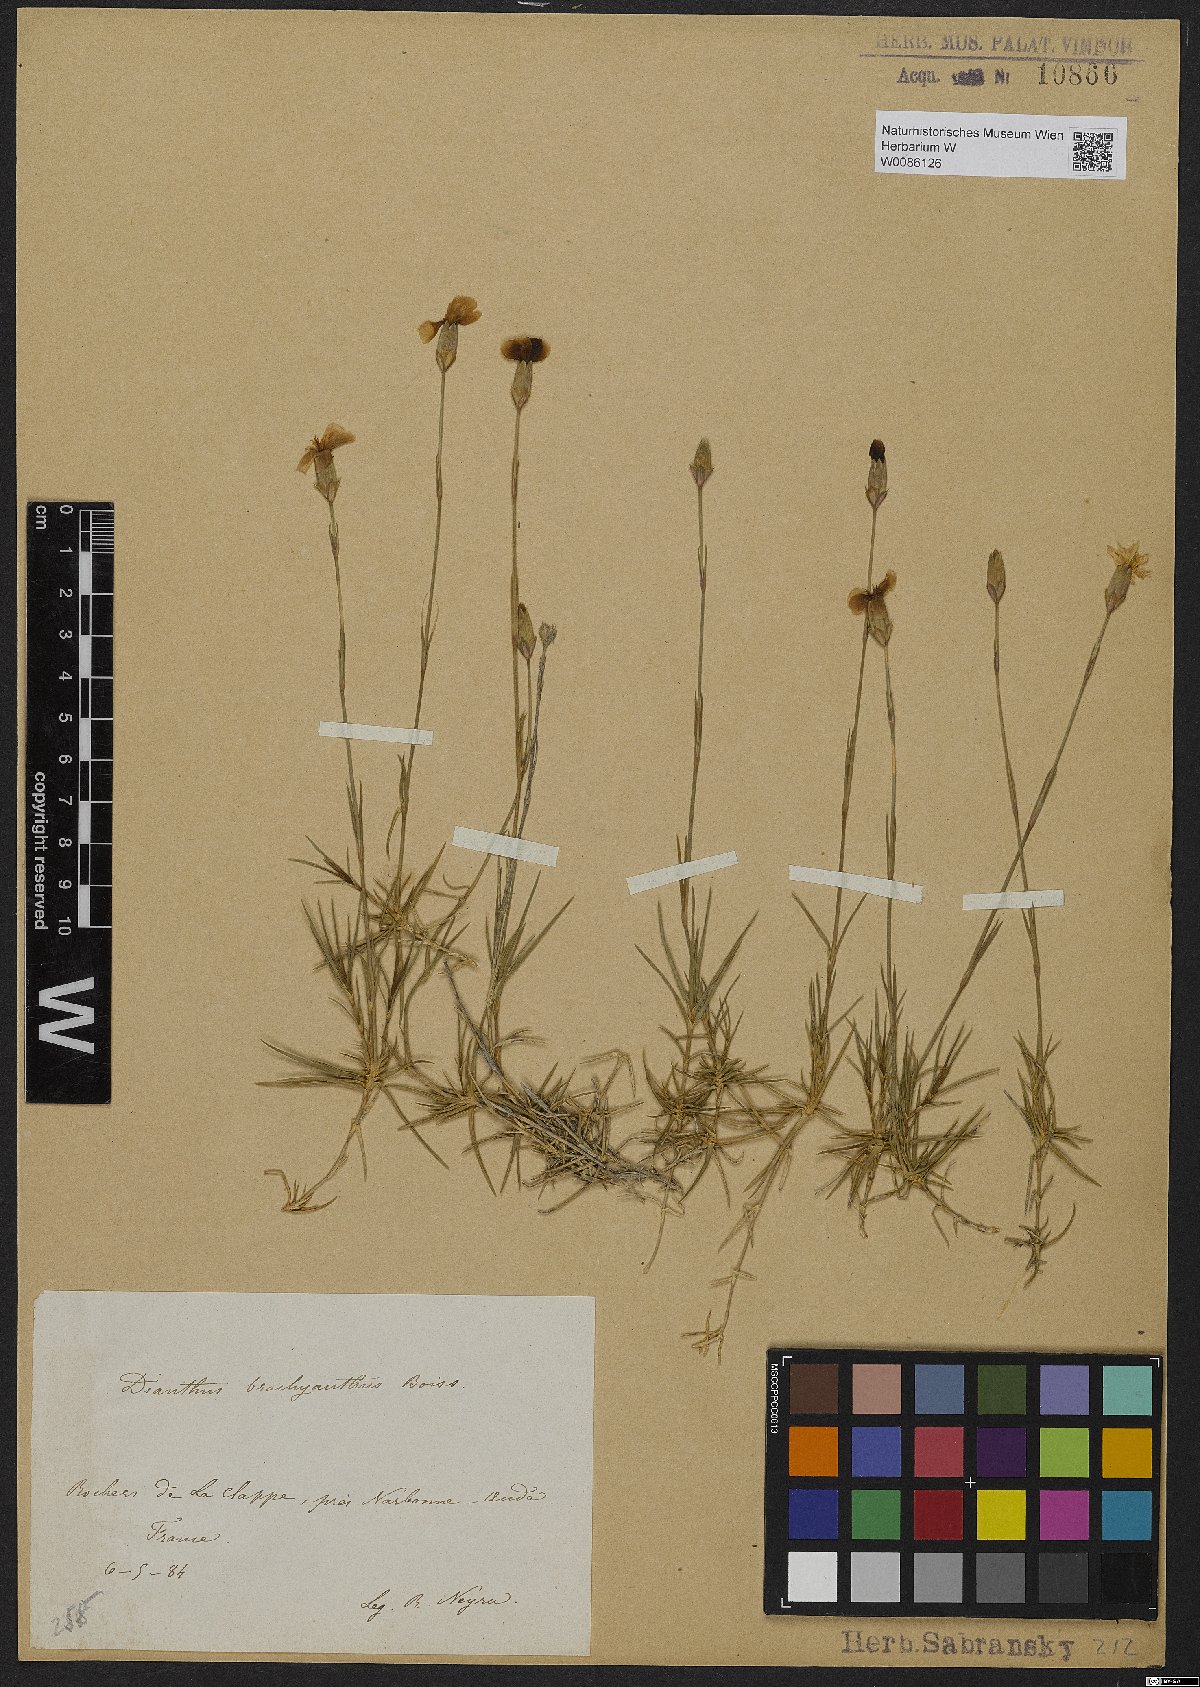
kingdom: Plantae
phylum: Tracheophyta
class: Magnoliopsida
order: Caryophyllales
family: Caryophyllaceae
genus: Dianthus
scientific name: Dianthus pungens
